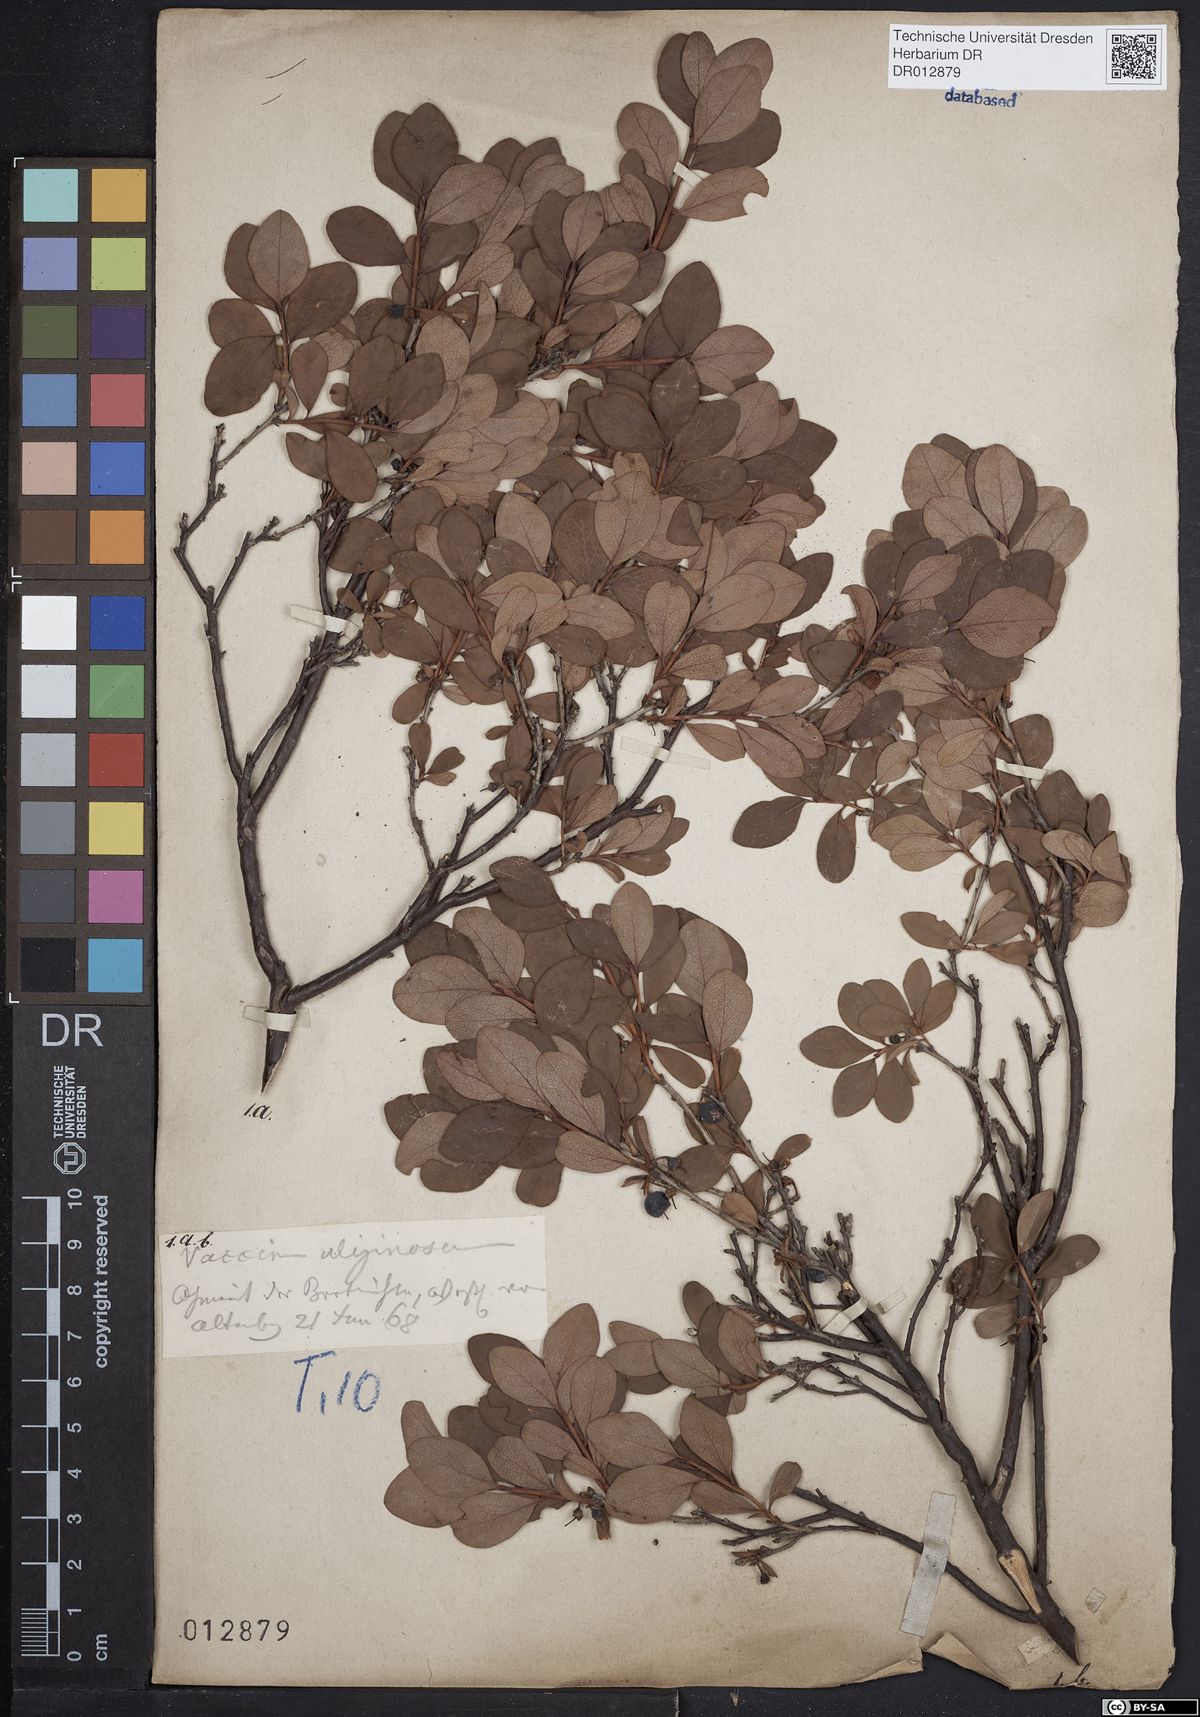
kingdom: Plantae
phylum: Tracheophyta
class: Magnoliopsida
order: Ericales
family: Ericaceae
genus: Vaccinium
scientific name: Vaccinium uliginosum
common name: Bog bilberry
